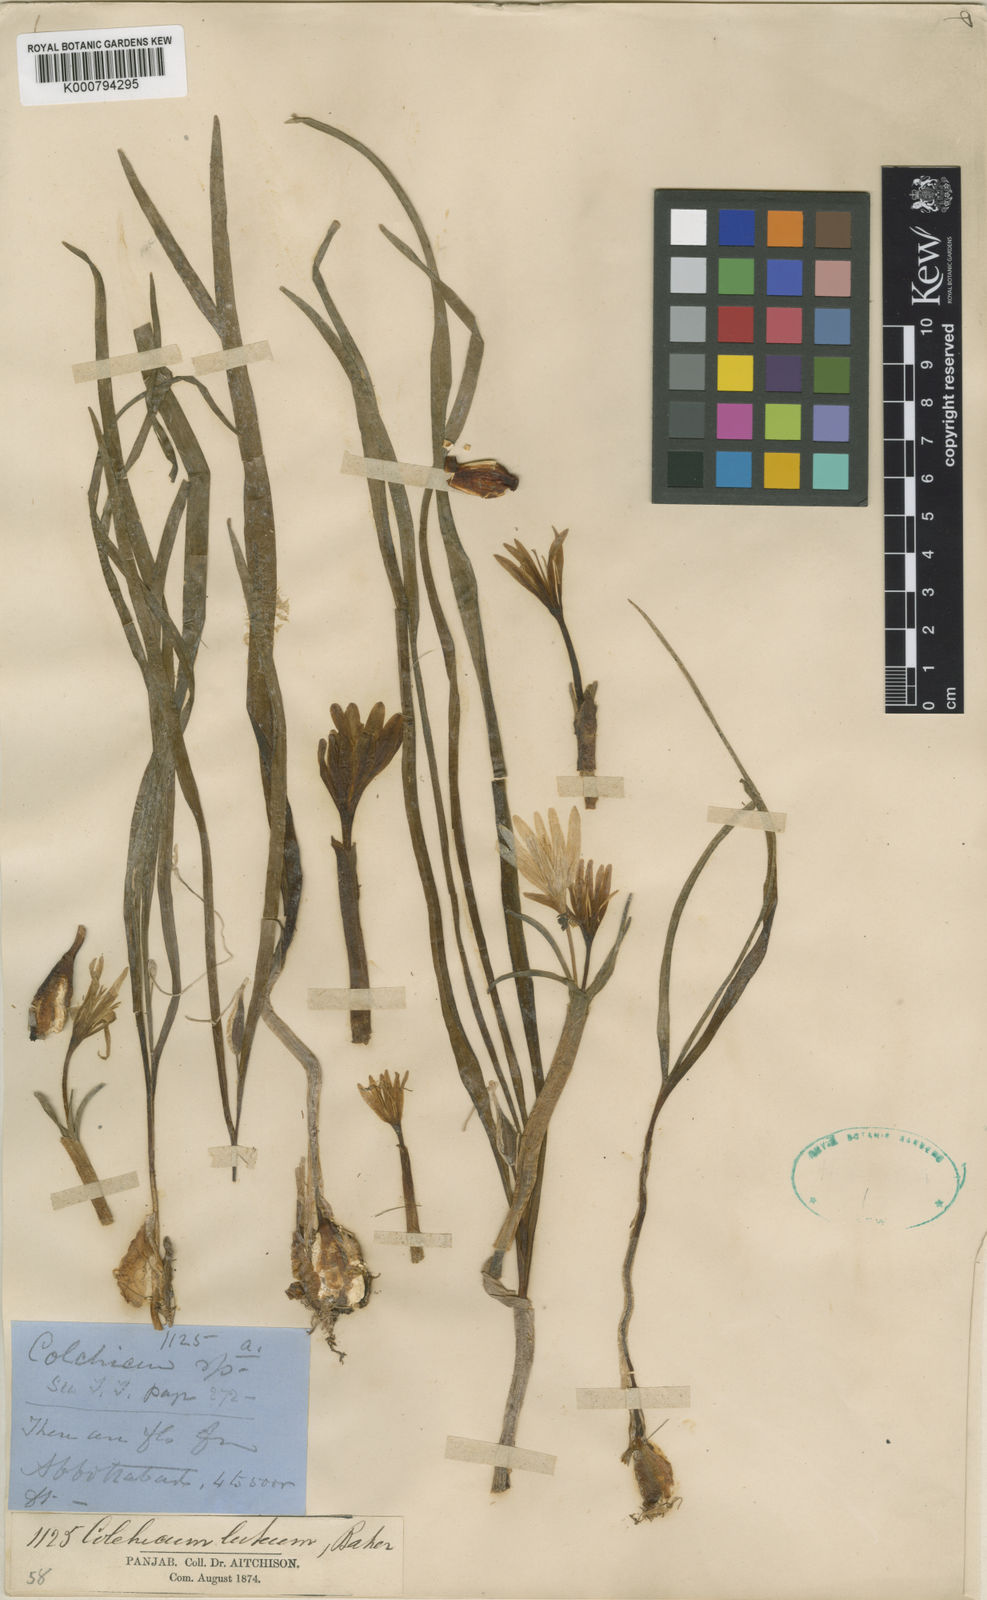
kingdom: Plantae
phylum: Tracheophyta
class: Liliopsida
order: Liliales
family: Colchicaceae
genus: Colchicum
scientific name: Colchicum luteum
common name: Indian colchicum
